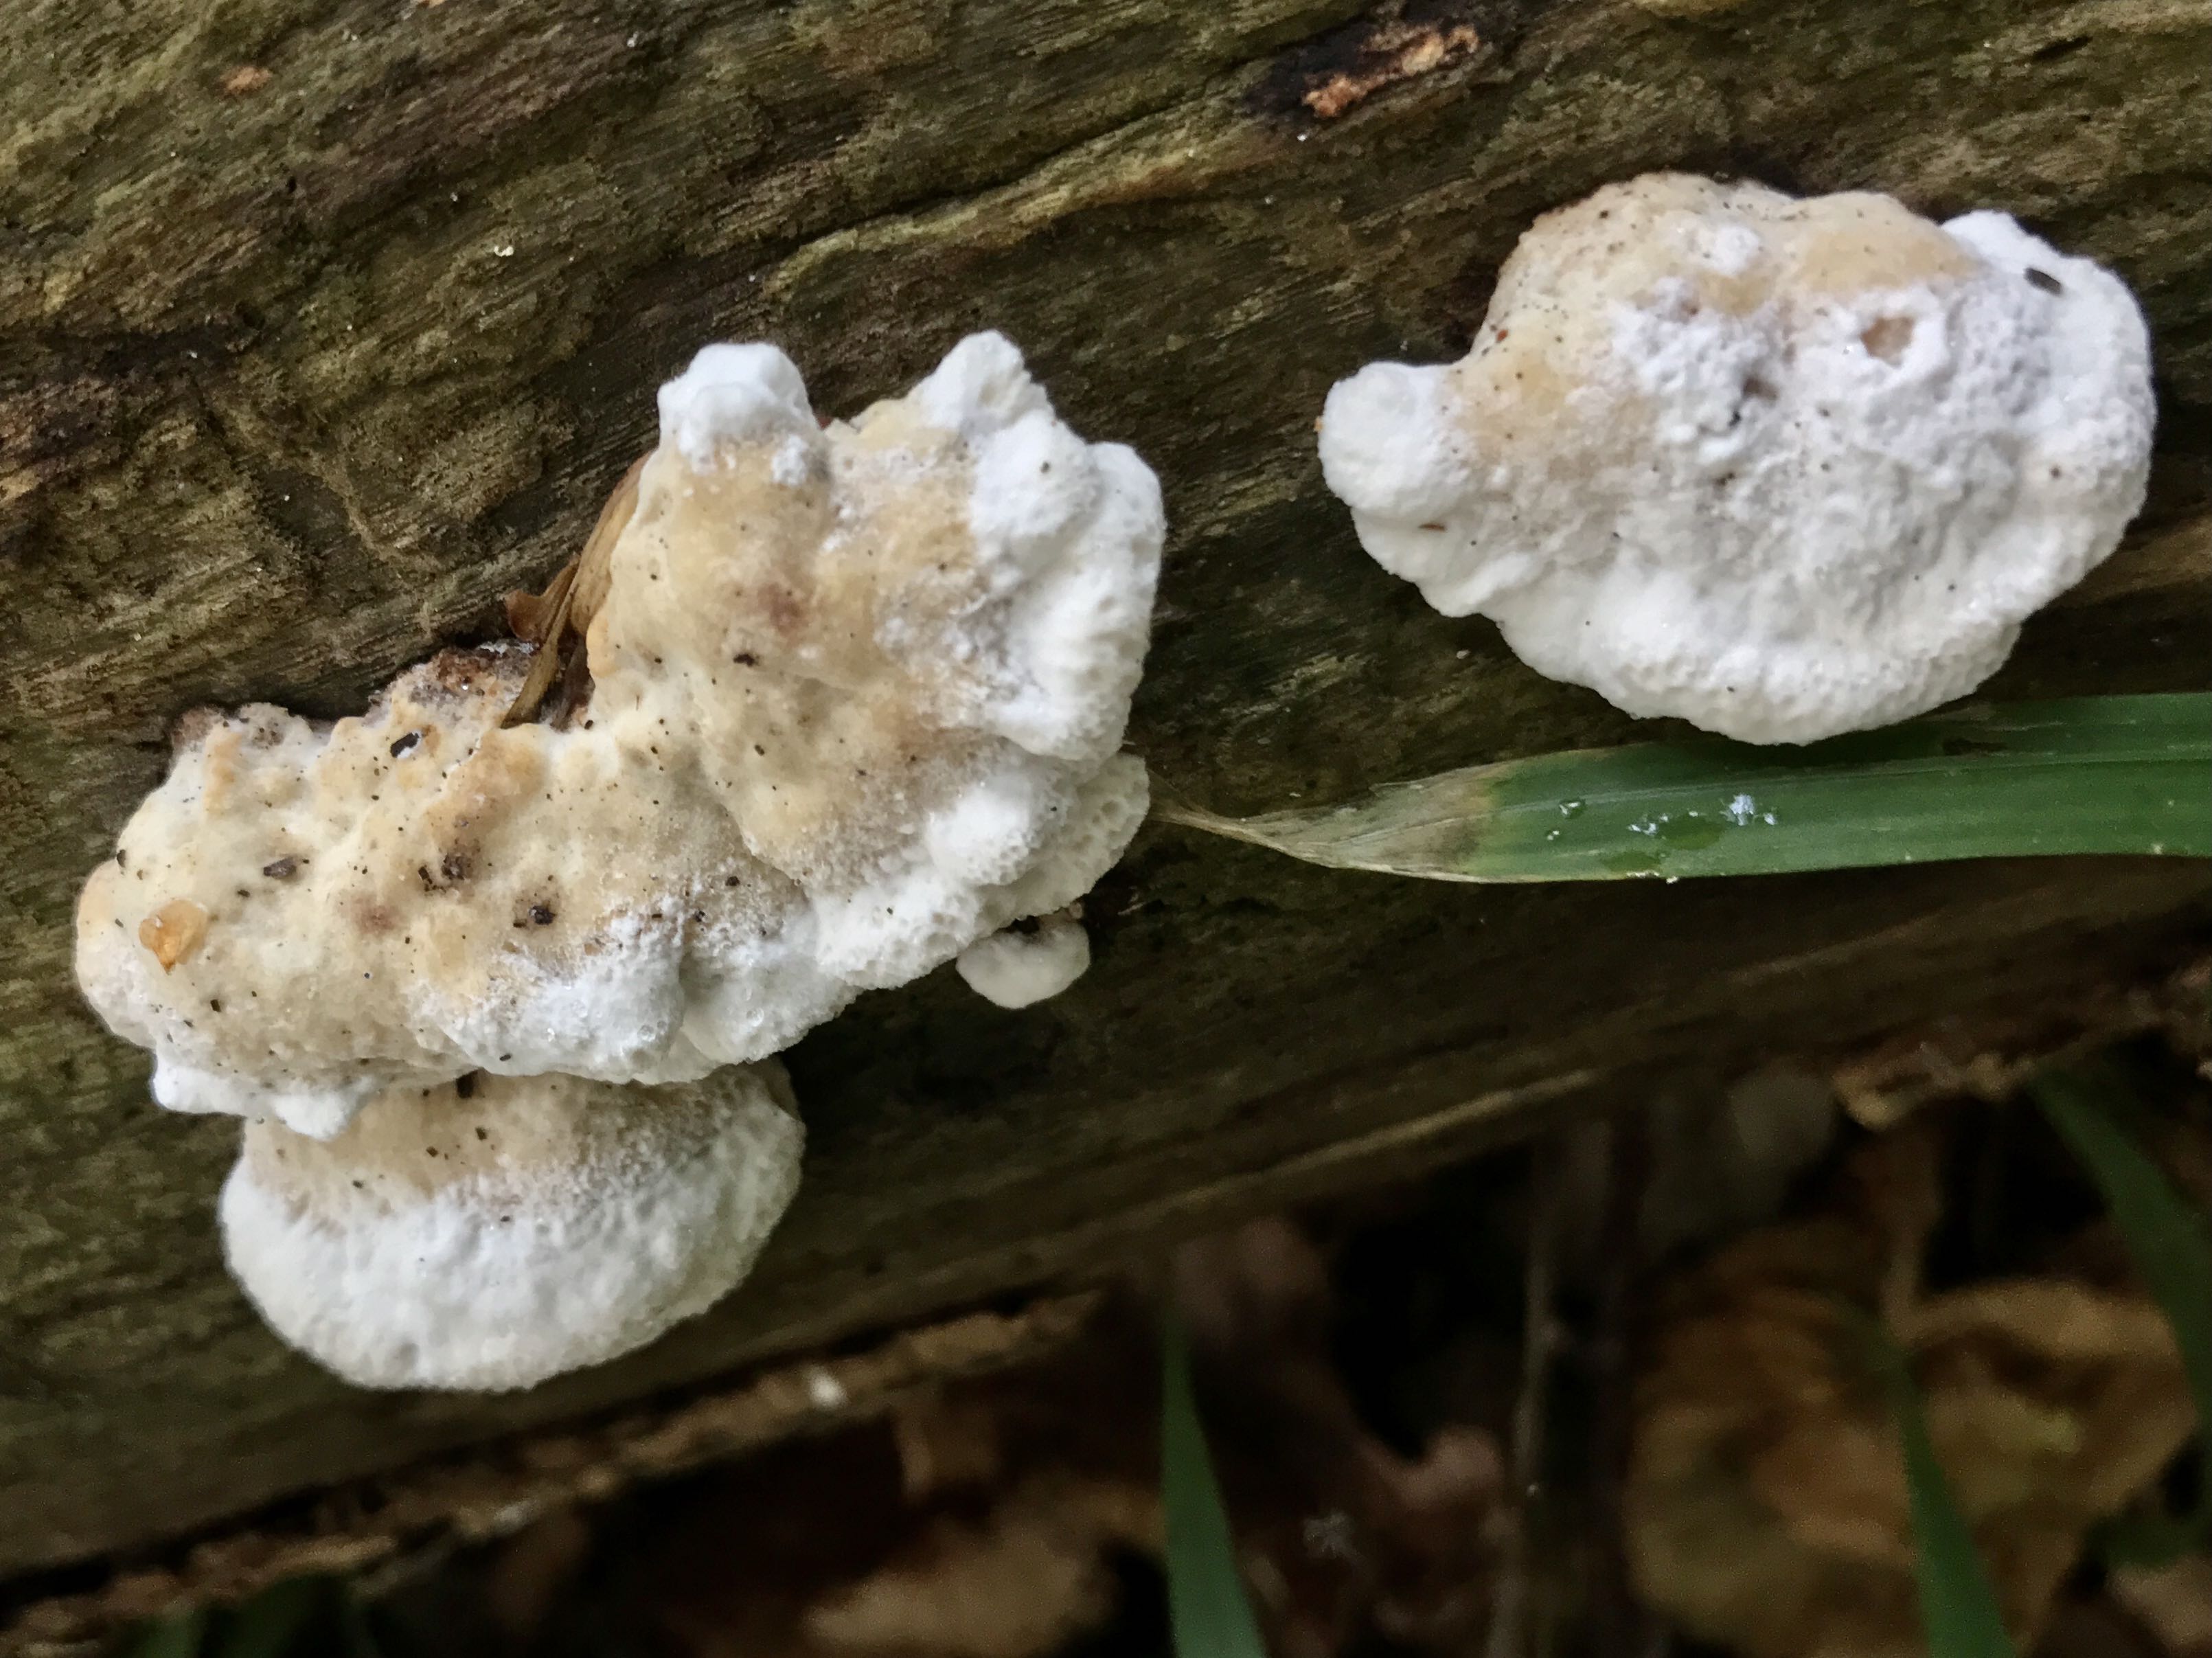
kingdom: Fungi
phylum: Basidiomycota
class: Agaricomycetes
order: Polyporales
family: Incrustoporiaceae
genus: Skeletocutis
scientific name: Skeletocutis nemoralis
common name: stor krystalporesvamp
